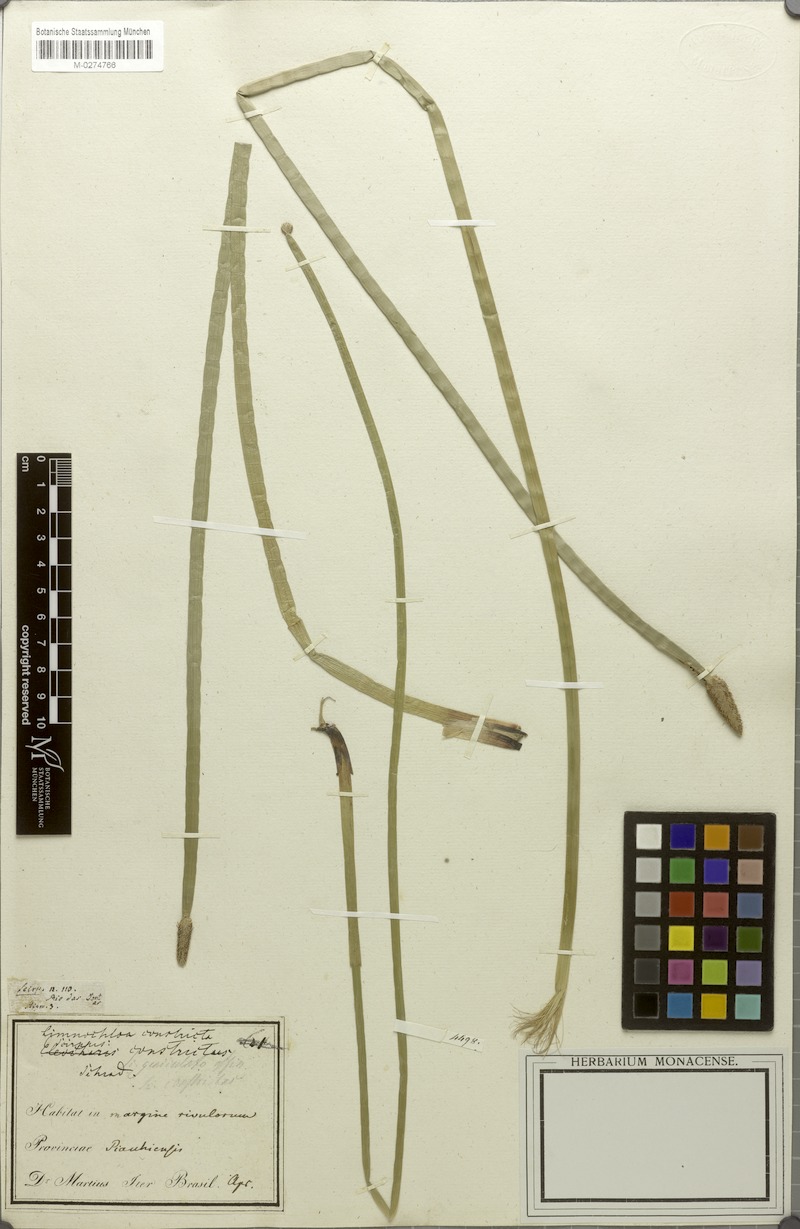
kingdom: Plantae
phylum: Tracheophyta
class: Liliopsida
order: Poales
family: Cyperaceae
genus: Eleocharis
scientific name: Eleocharis elegans
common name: Elegant spike-rush
